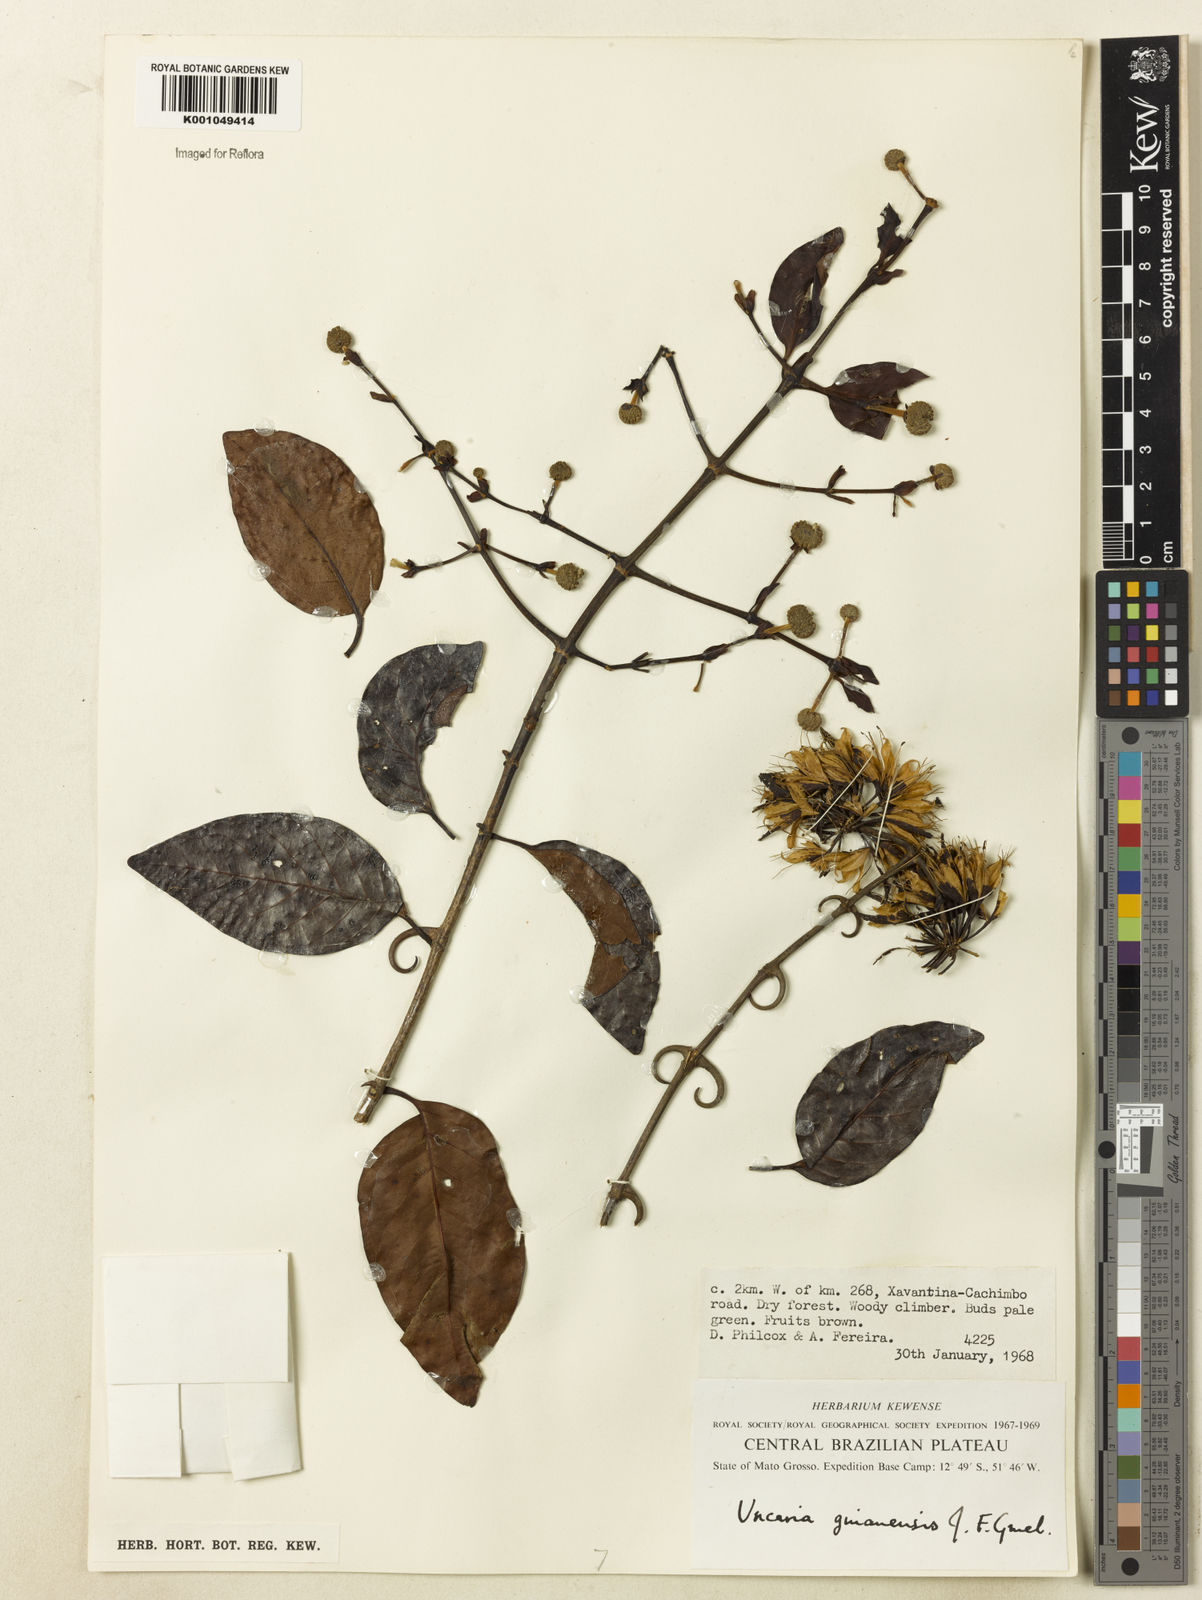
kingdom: Plantae
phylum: Tracheophyta
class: Magnoliopsida
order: Gentianales
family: Rubiaceae
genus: Uncaria
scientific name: Uncaria guianensis
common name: Cat's-claw
